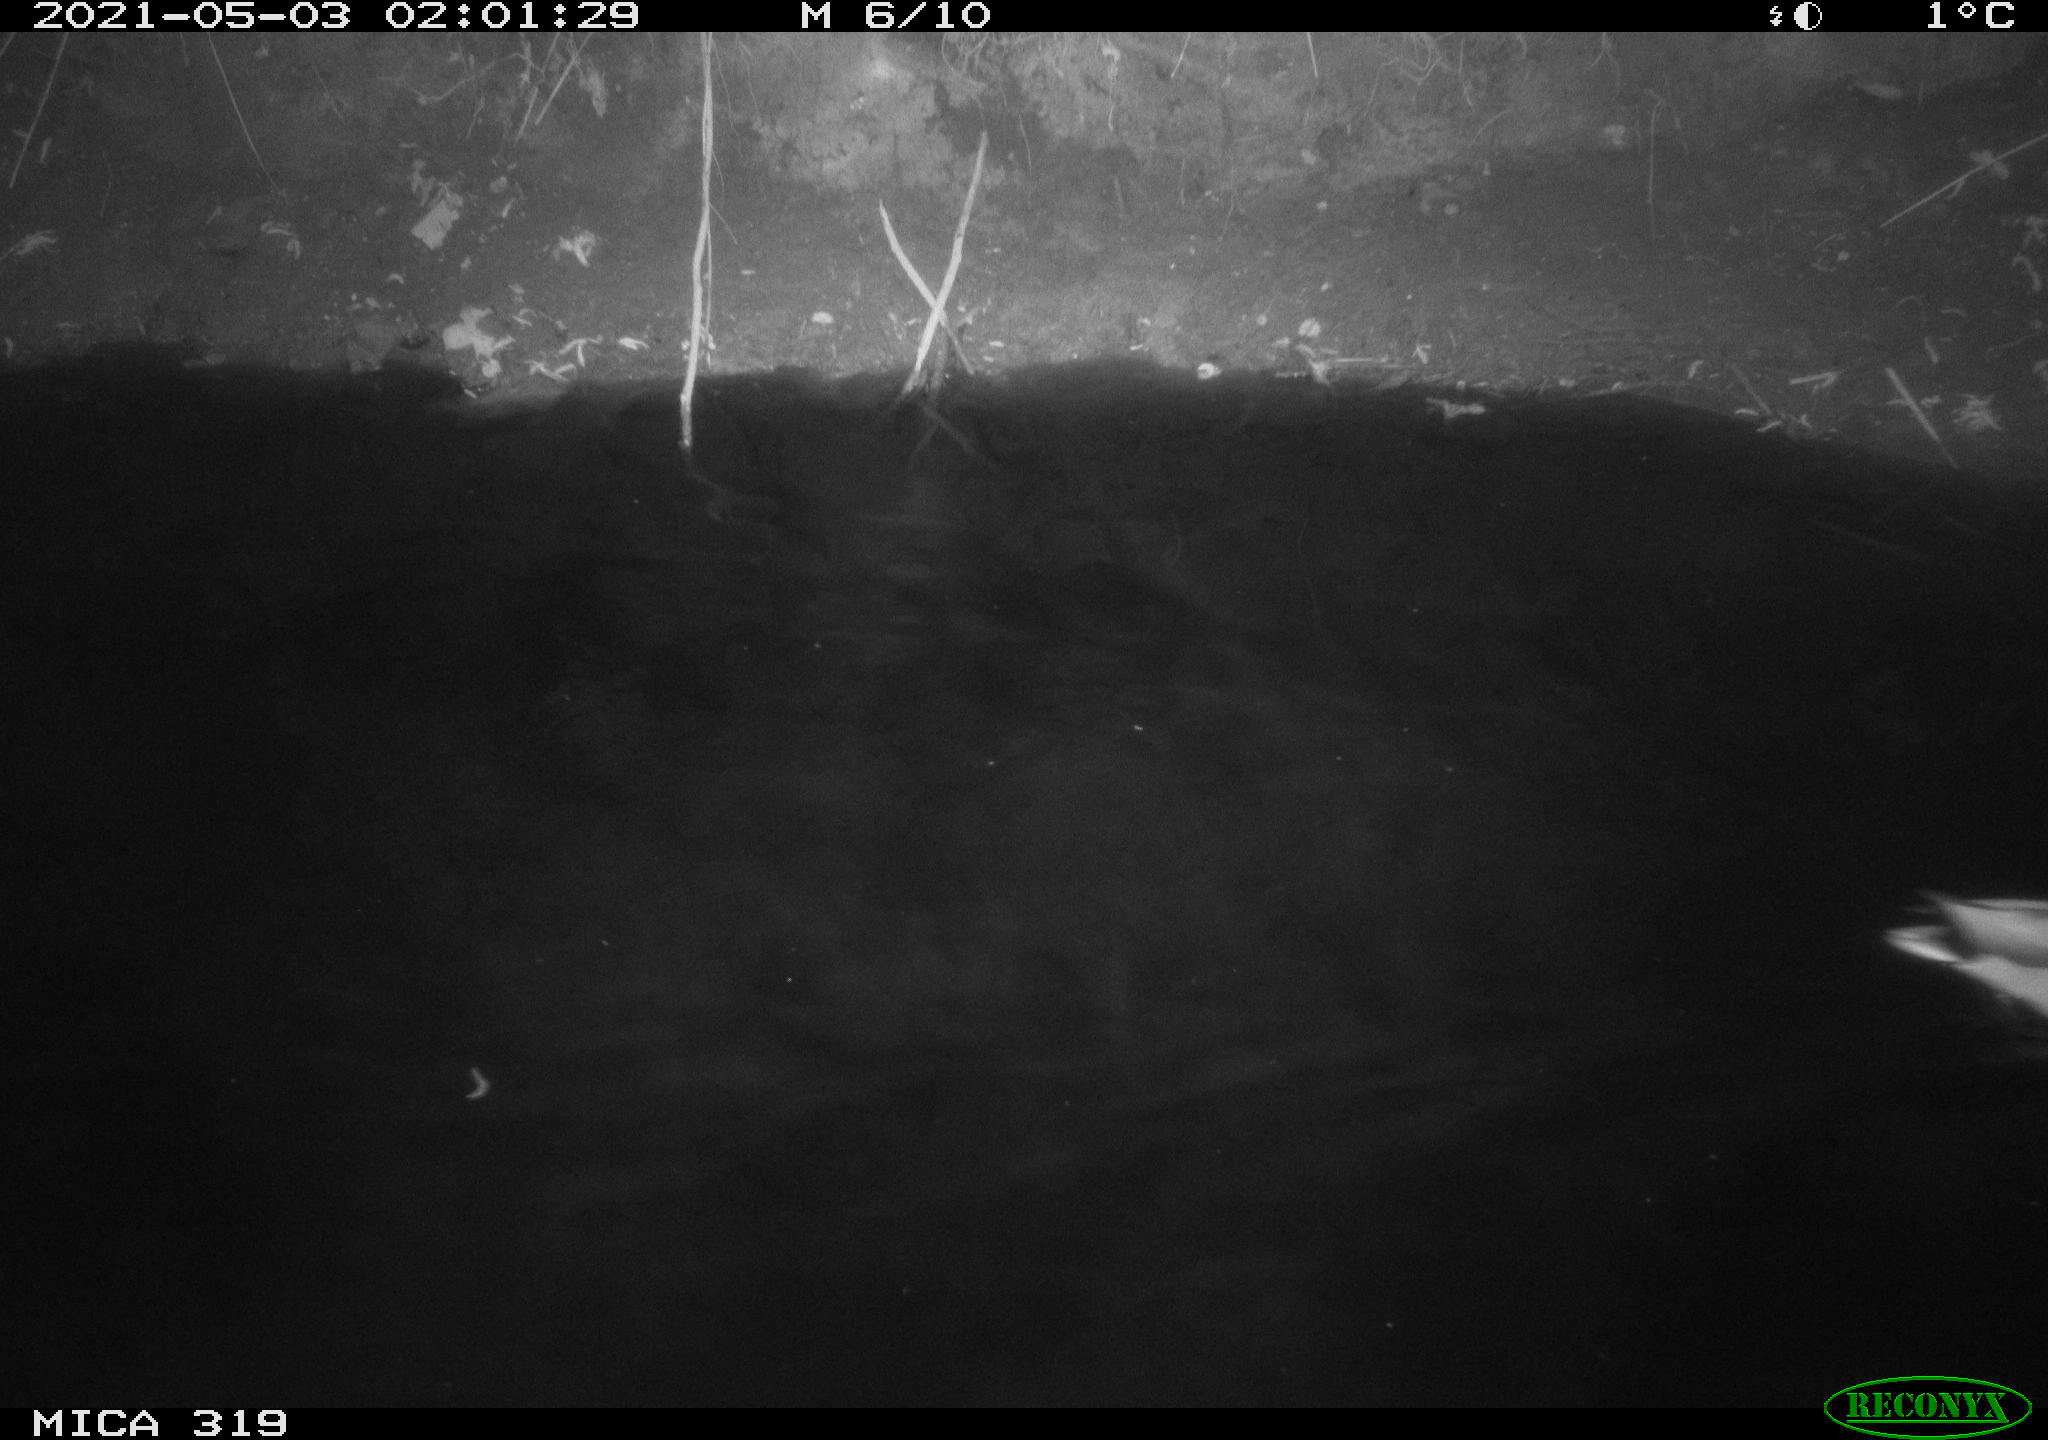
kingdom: Animalia
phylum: Chordata
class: Aves
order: Anseriformes
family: Anatidae
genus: Anas
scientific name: Anas platyrhynchos
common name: Mallard
